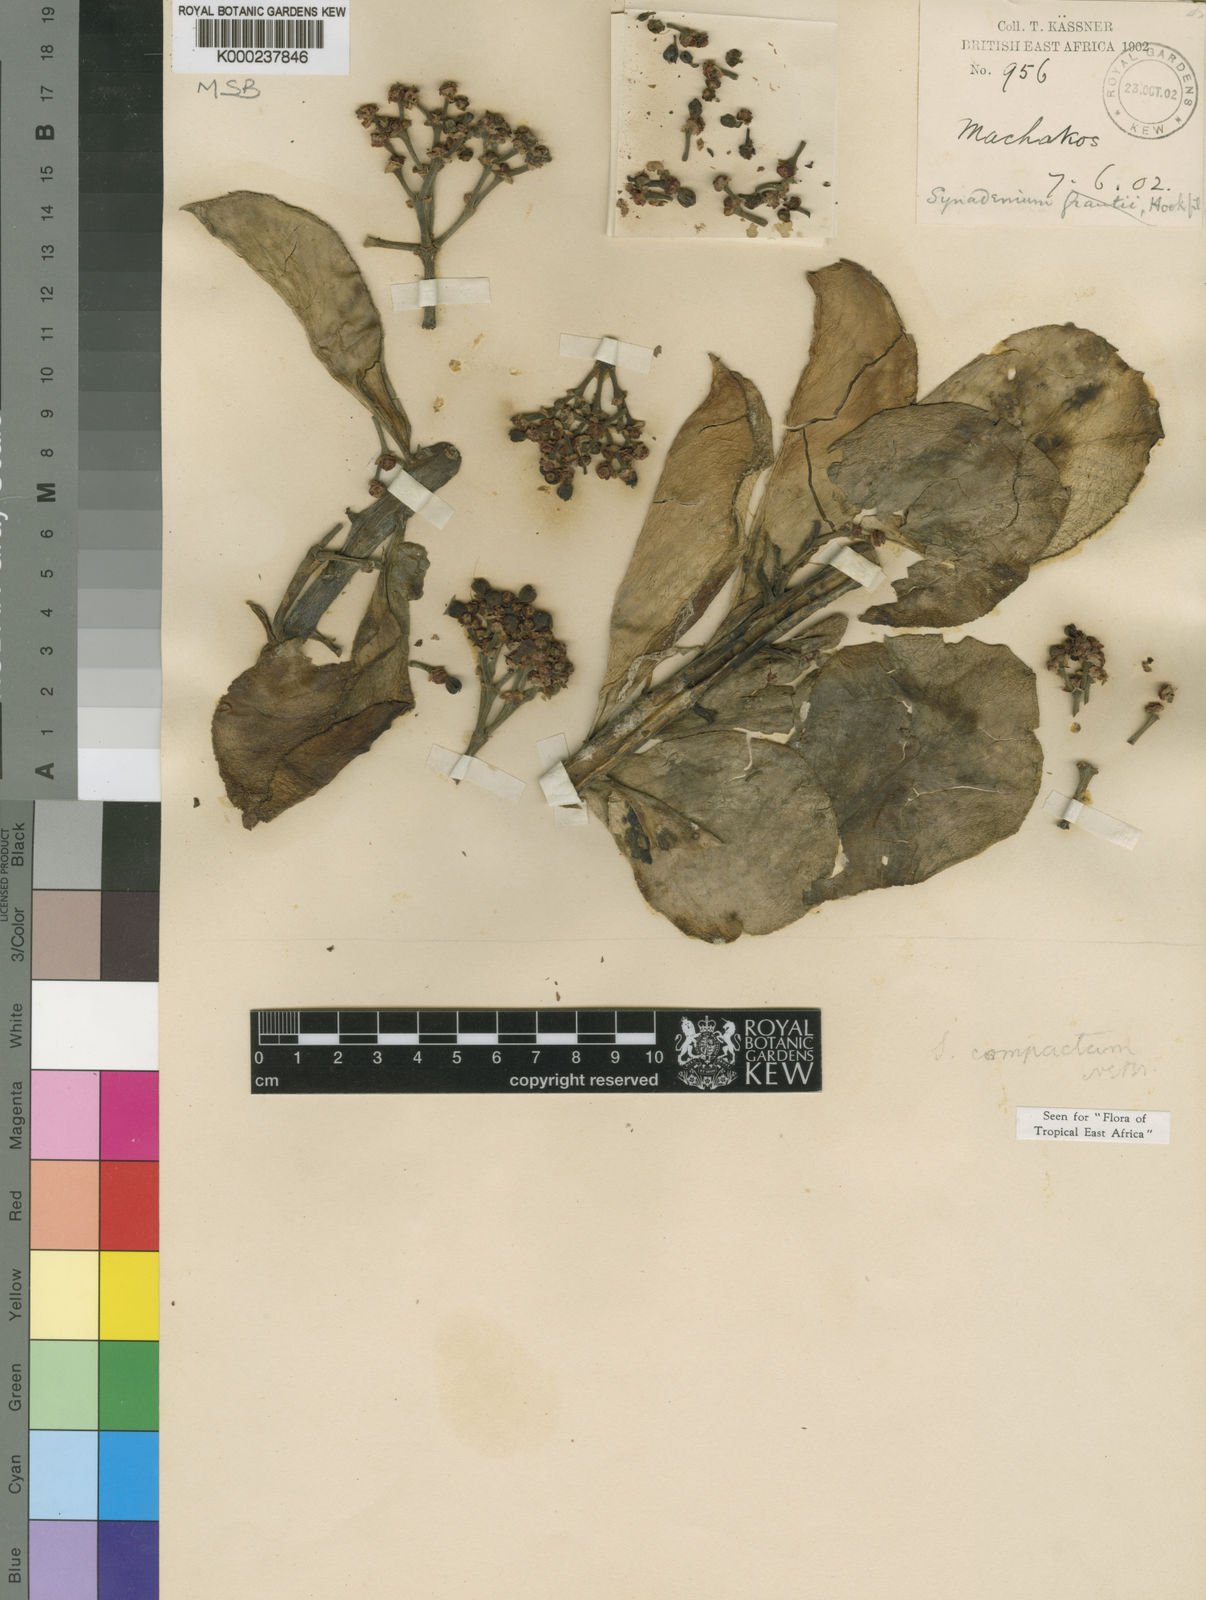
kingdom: Plantae
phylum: Tracheophyta
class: Magnoliopsida
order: Malpighiales
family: Euphorbiaceae
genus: Euphorbia
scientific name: Euphorbia bicompacta
